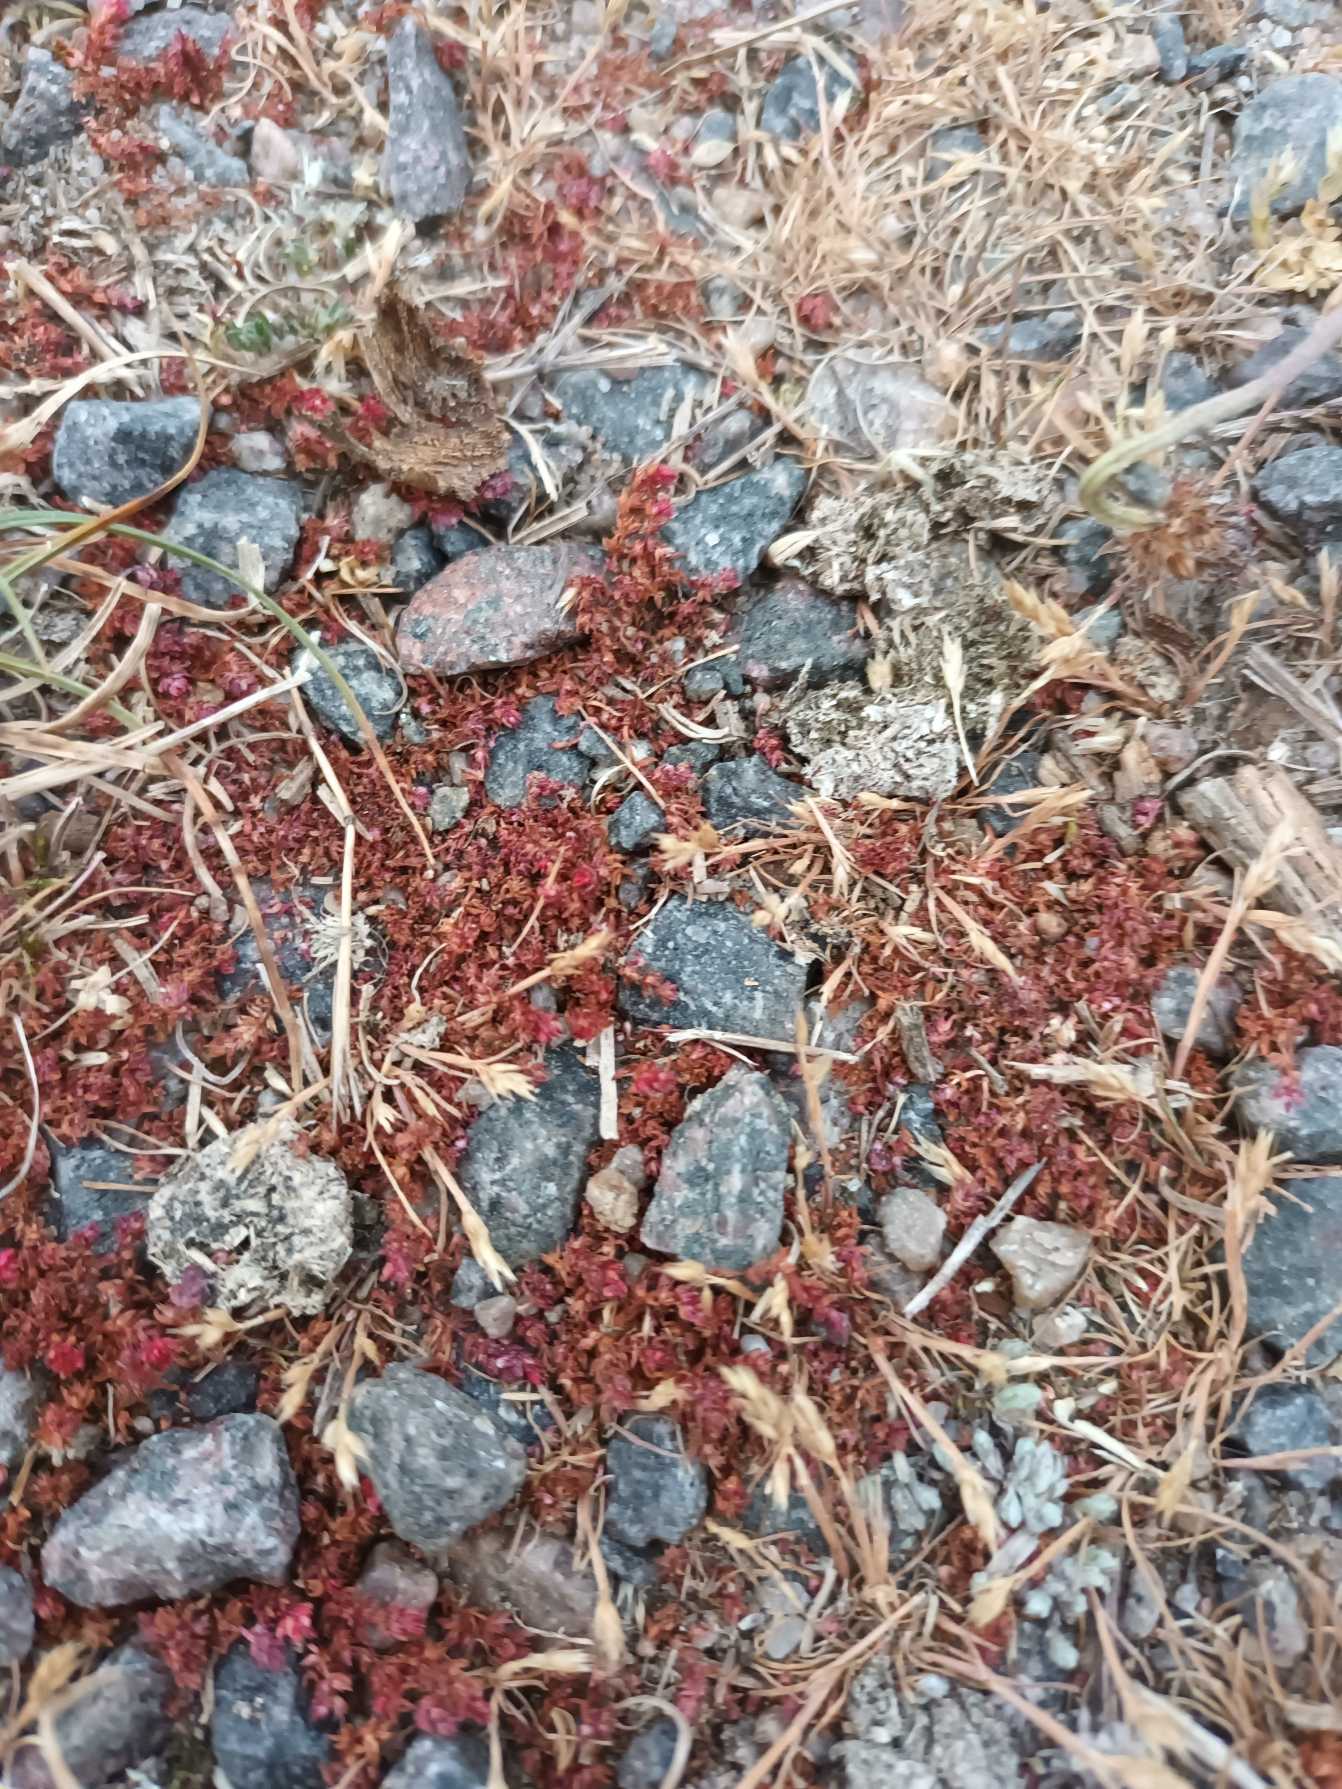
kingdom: Plantae
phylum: Tracheophyta
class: Magnoliopsida
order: Saxifragales
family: Crassulaceae
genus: Crassula
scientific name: Crassula tillaea
